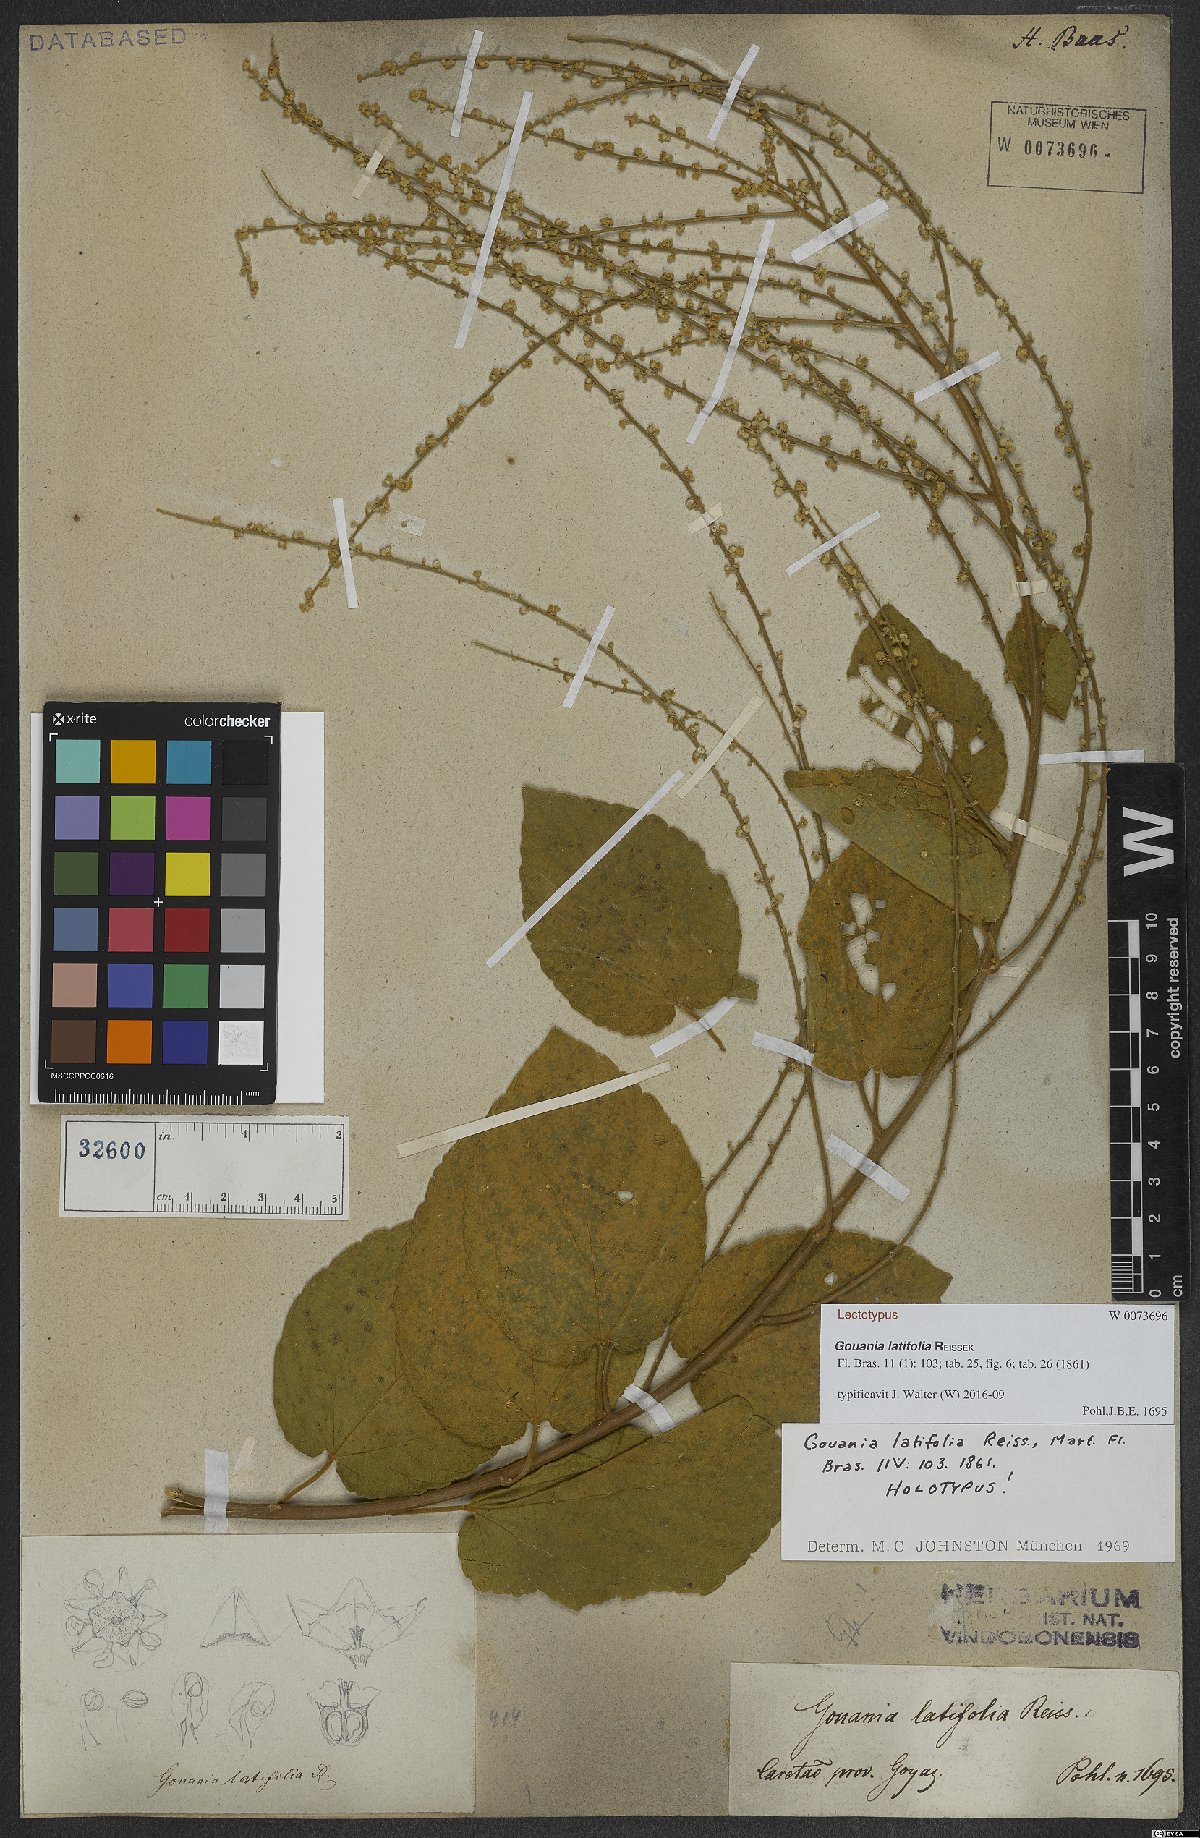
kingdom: Plantae
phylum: Tracheophyta
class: Magnoliopsida
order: Rosales
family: Rhamnaceae
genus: Gouania
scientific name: Gouania latifolia
